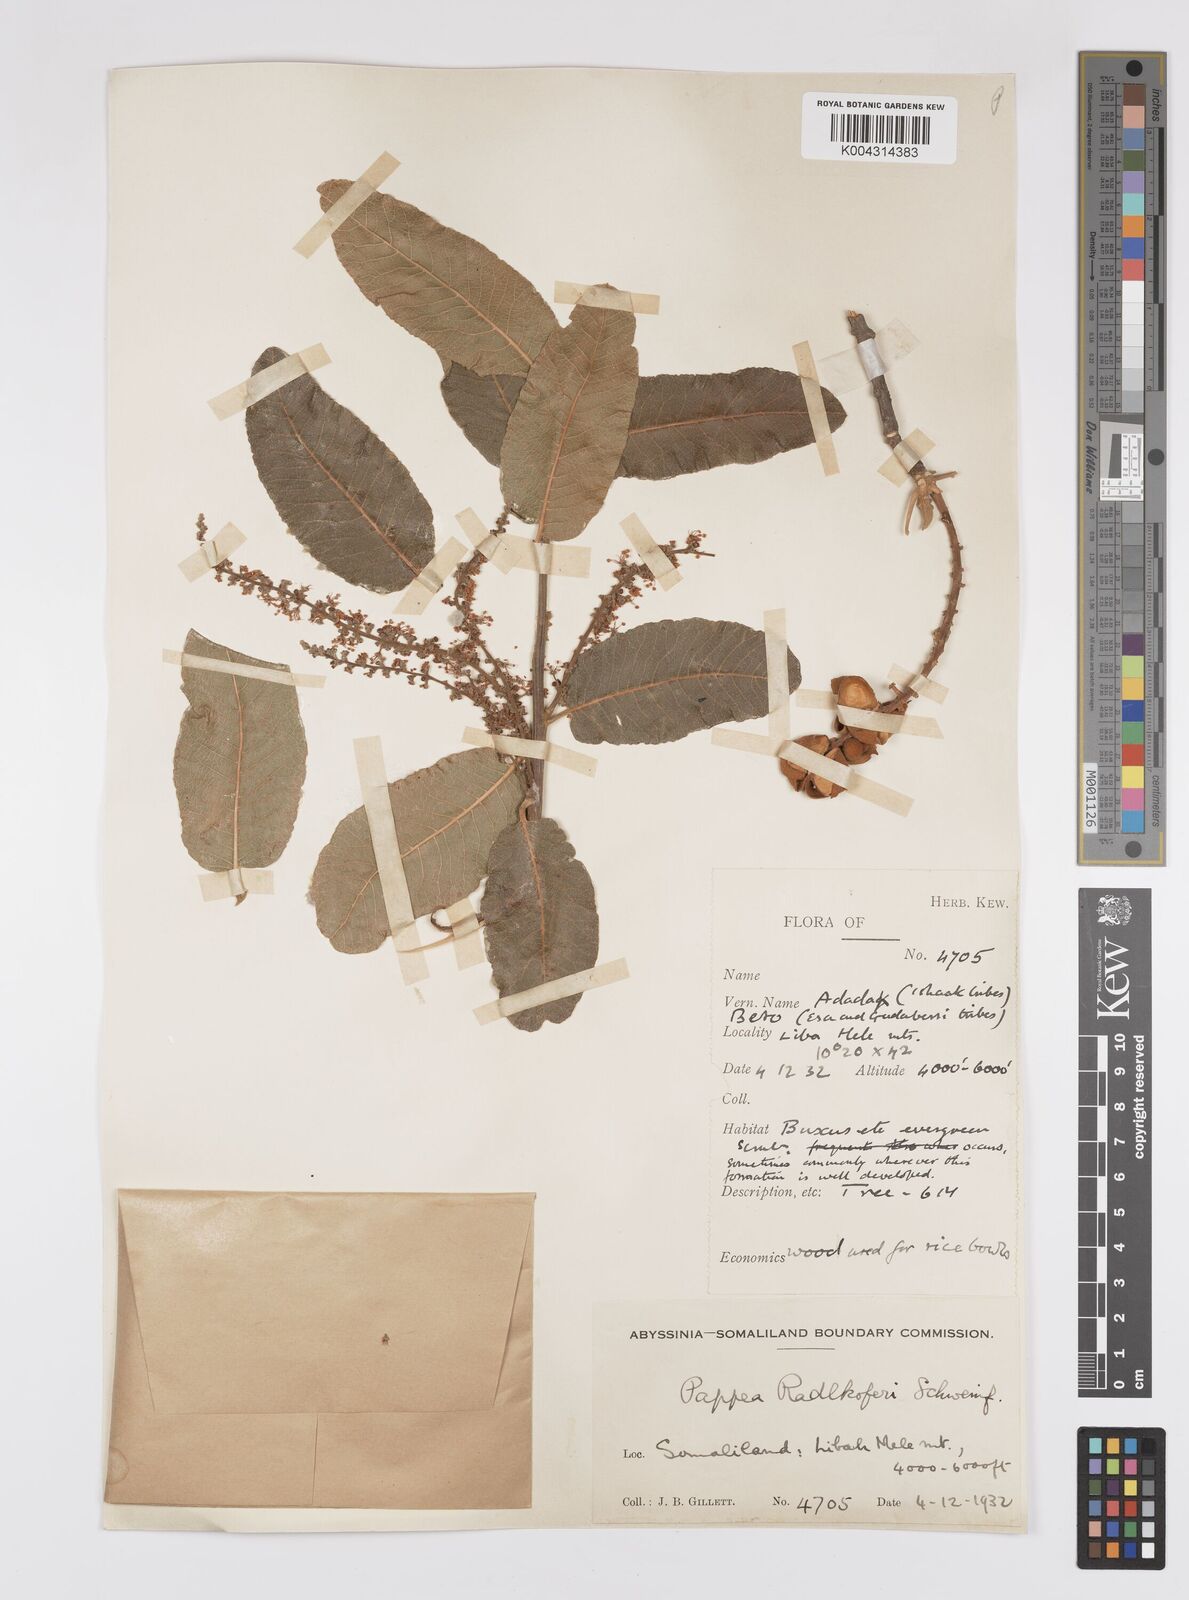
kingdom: Plantae
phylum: Tracheophyta
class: Magnoliopsida
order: Sapindales
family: Sapindaceae
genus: Pappea
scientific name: Pappea capensis
